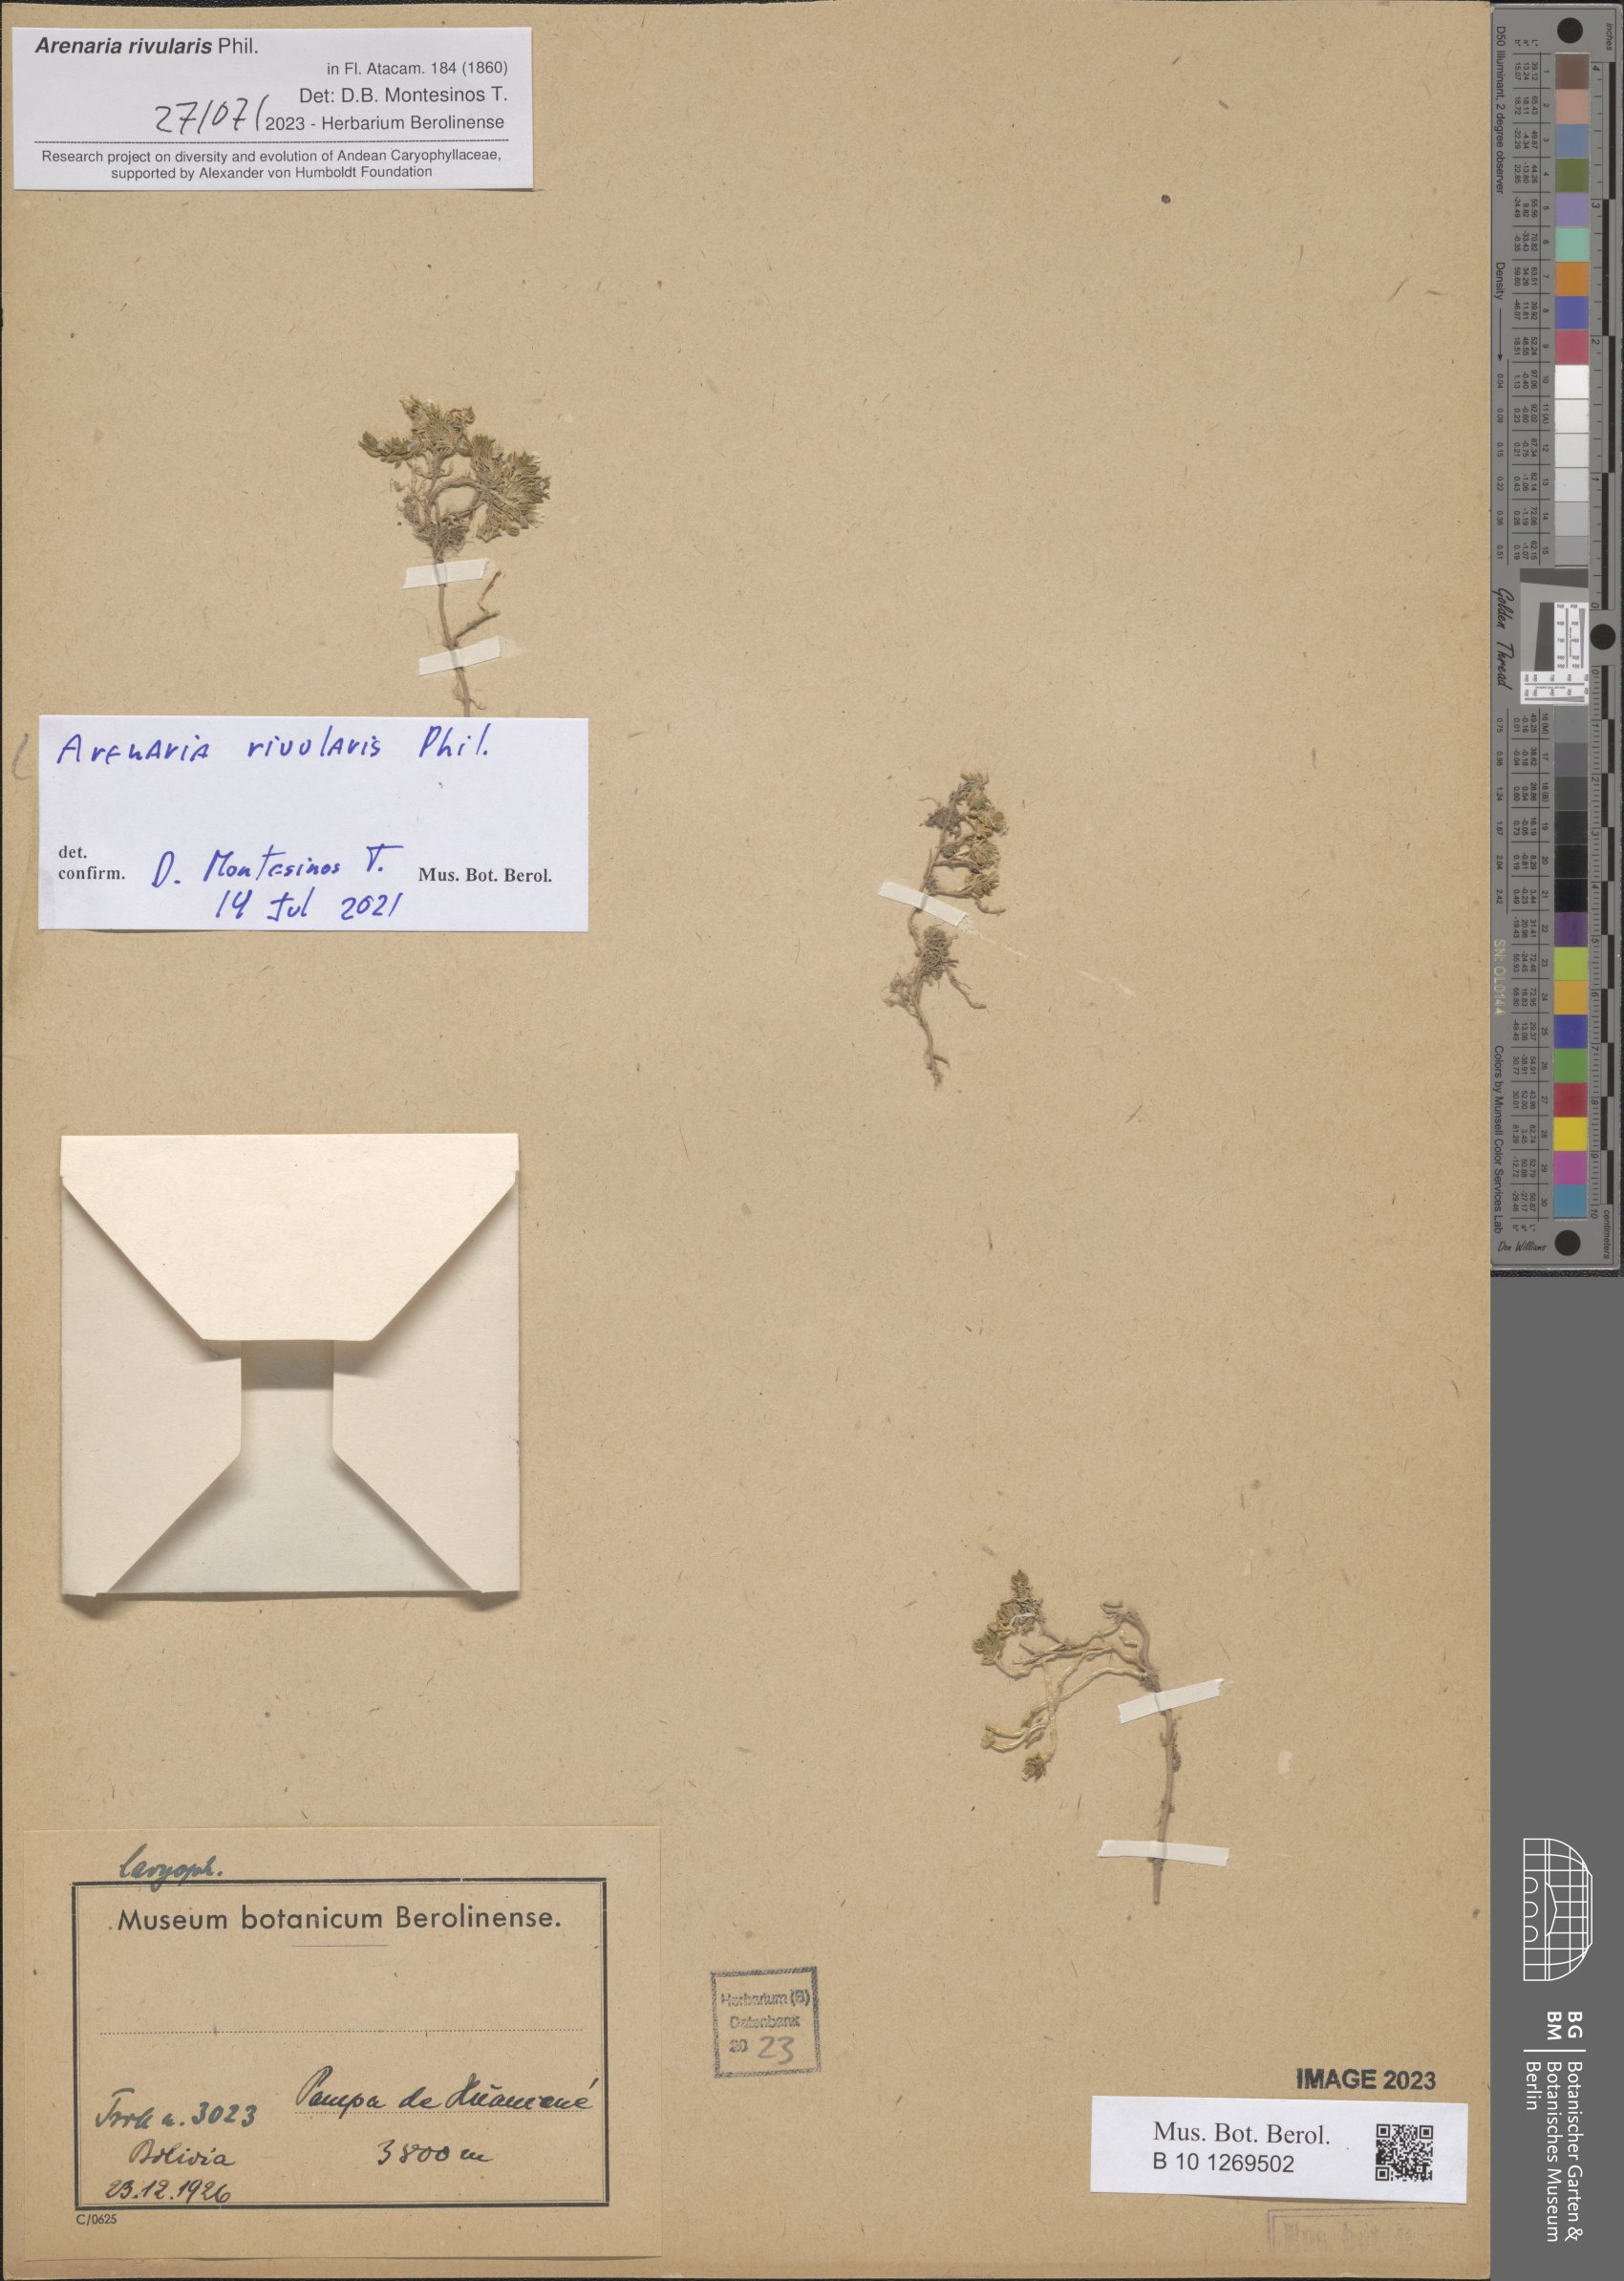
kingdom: Plantae
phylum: Tracheophyta
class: Magnoliopsida
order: Caryophyllales
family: Caryophyllaceae
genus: Arenaria
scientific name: Arenaria rivularis
